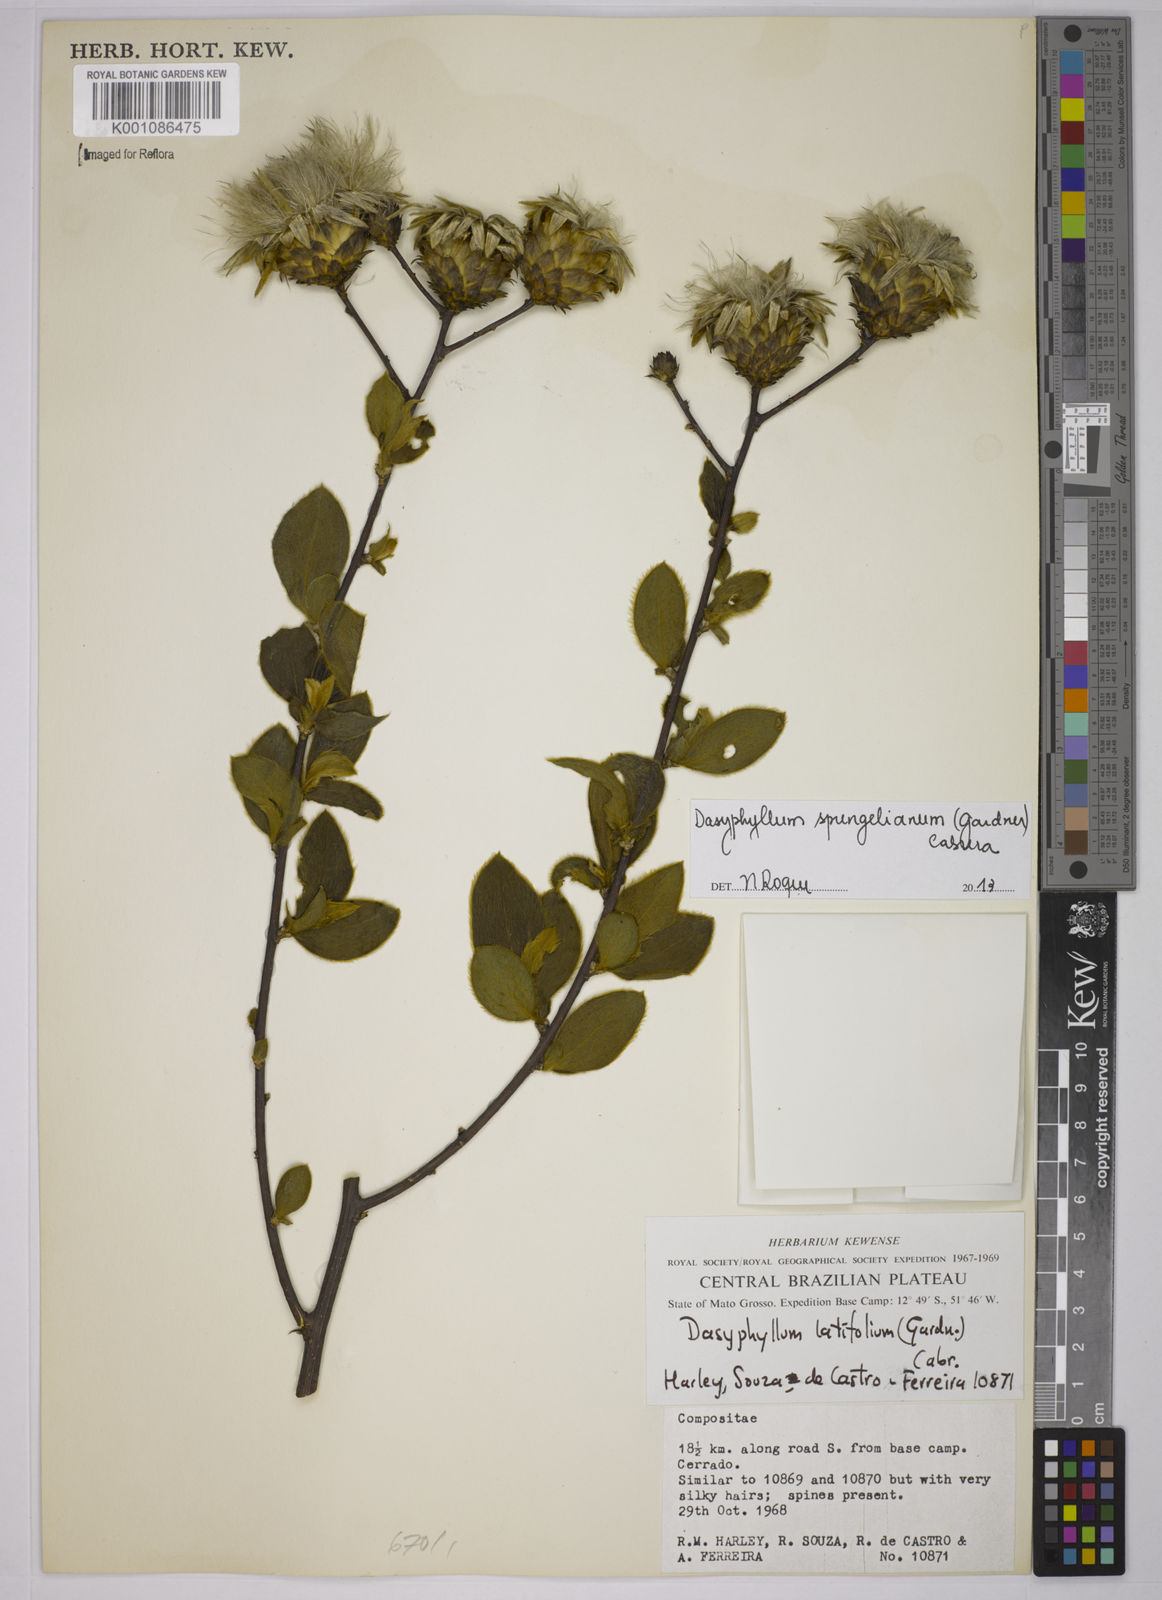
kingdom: Plantae
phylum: Tracheophyta
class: Magnoliopsida
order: Asterales
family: Asteraceae
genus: Dasyphyllum
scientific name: Dasyphyllum sprengelianum
